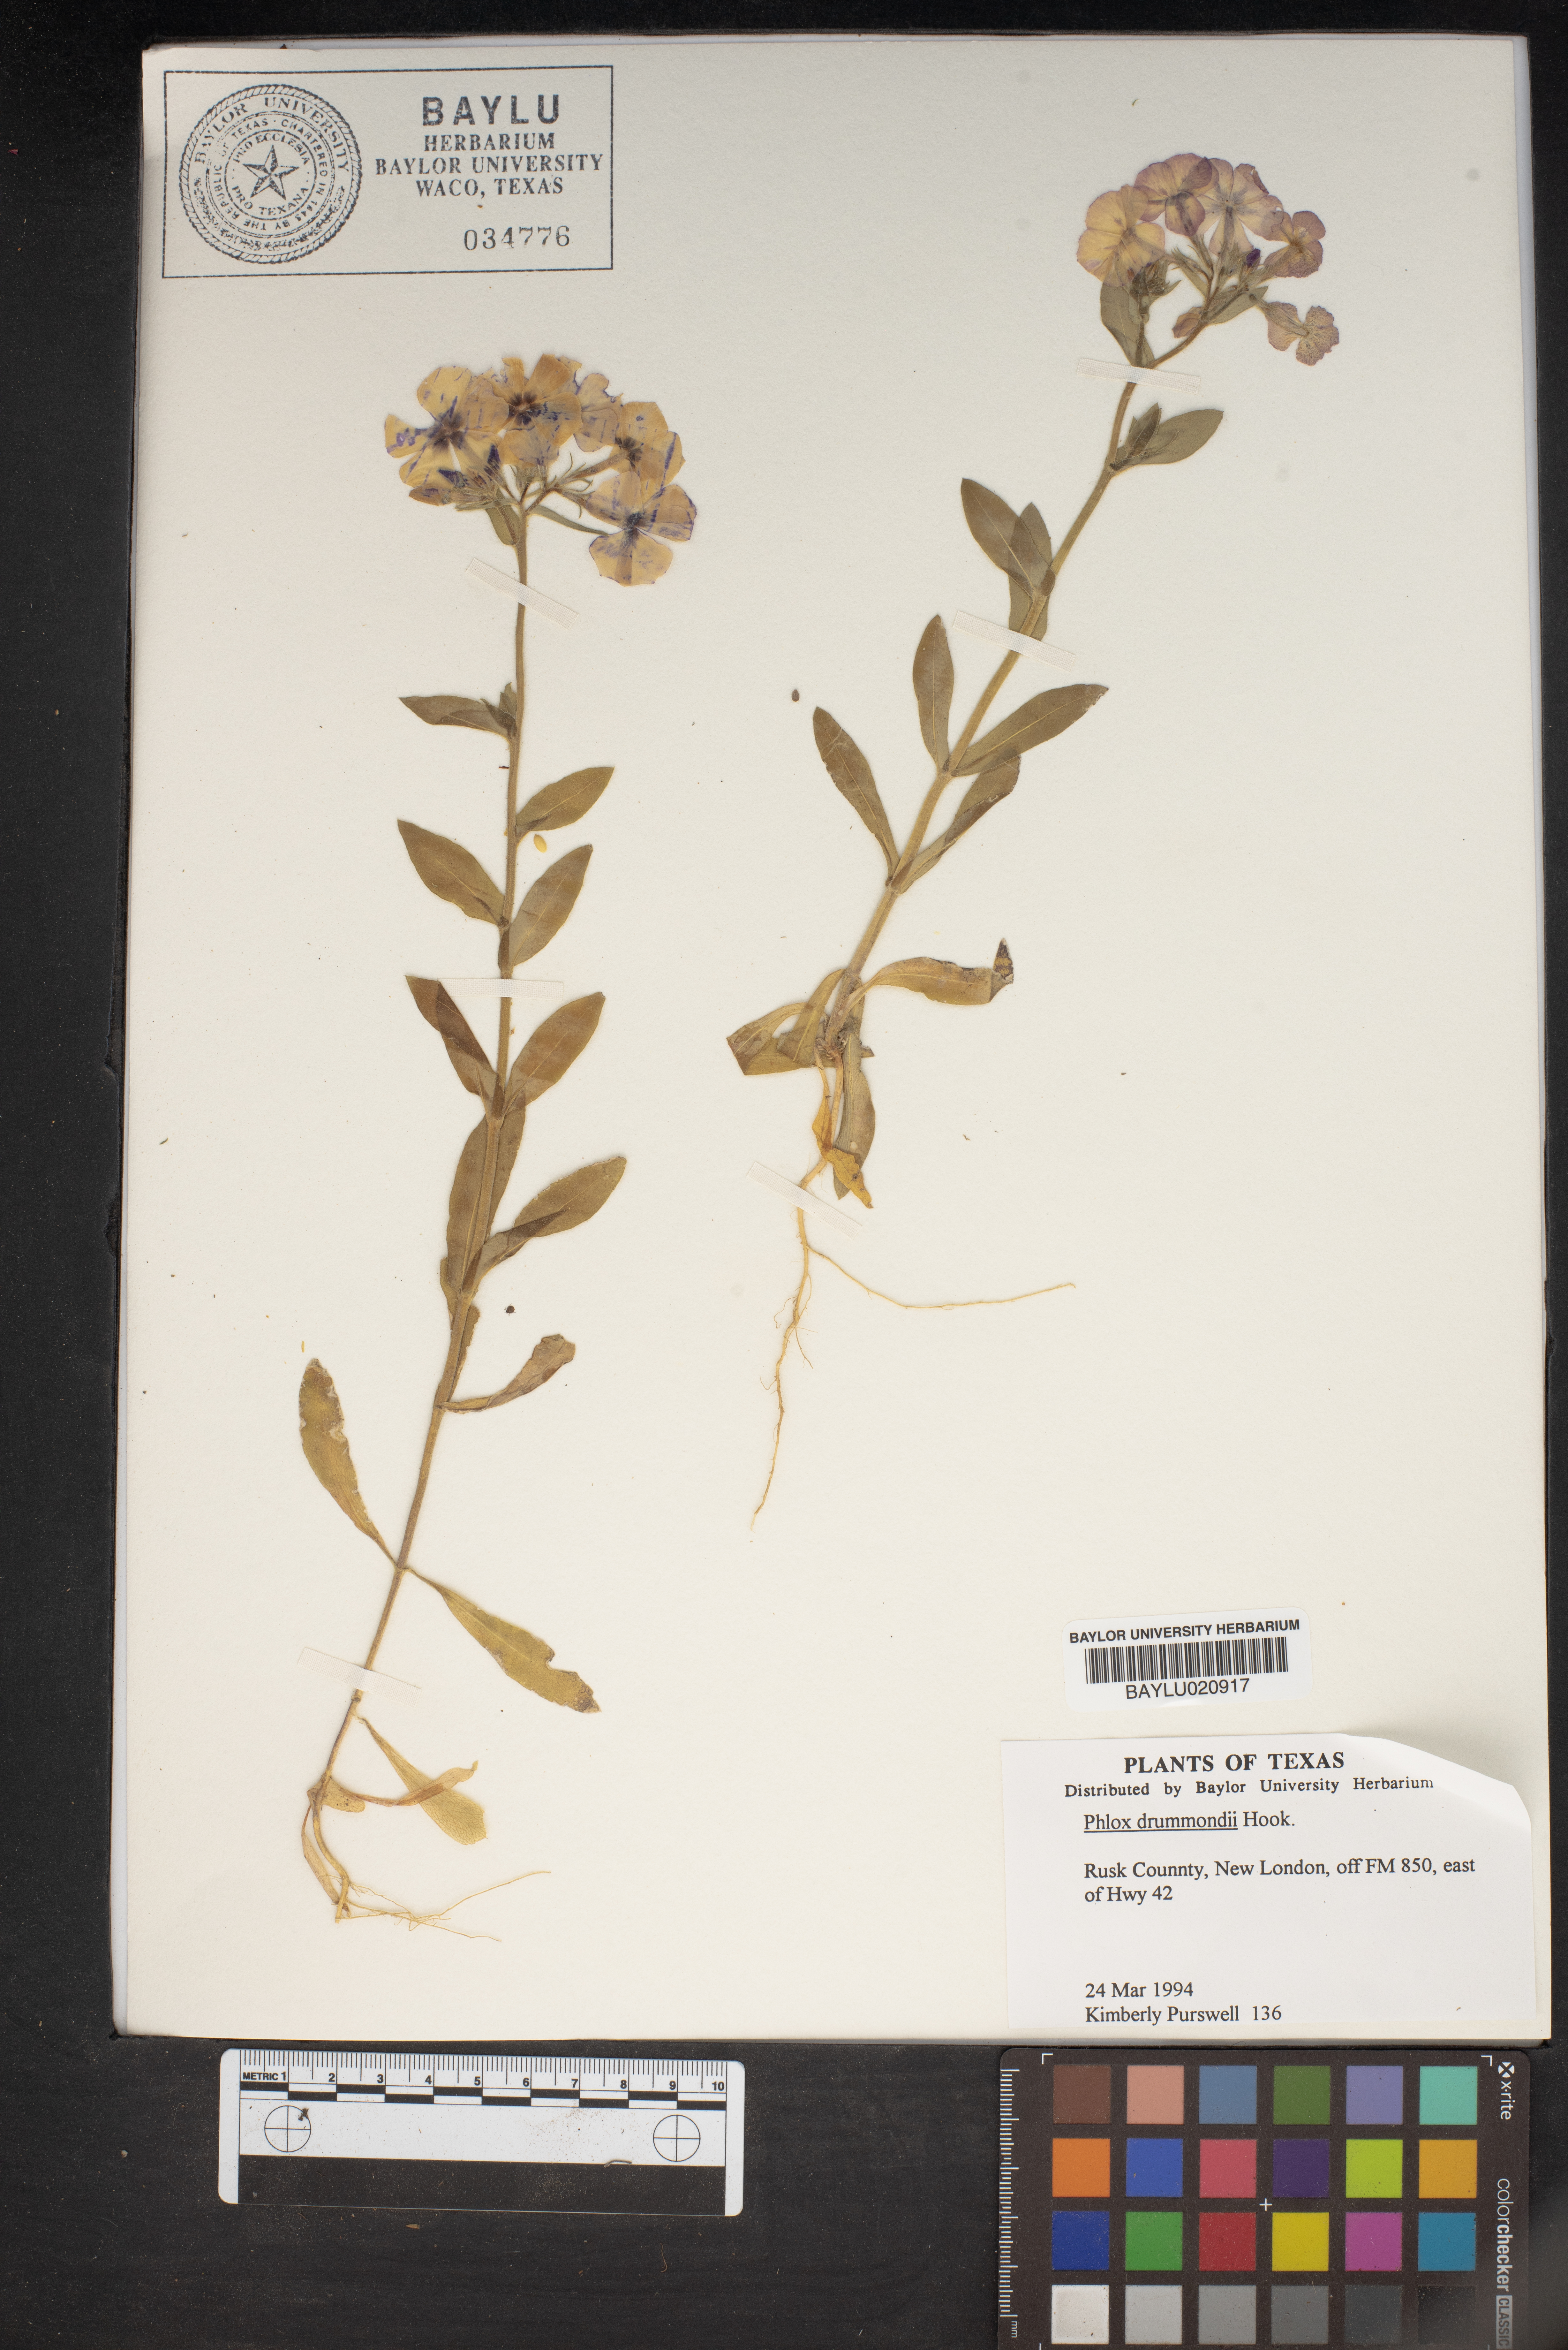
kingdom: Plantae
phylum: Tracheophyta
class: Magnoliopsida
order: Ericales
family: Polemoniaceae
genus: Phlox
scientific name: Phlox drummondii
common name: Drummond's phlox
